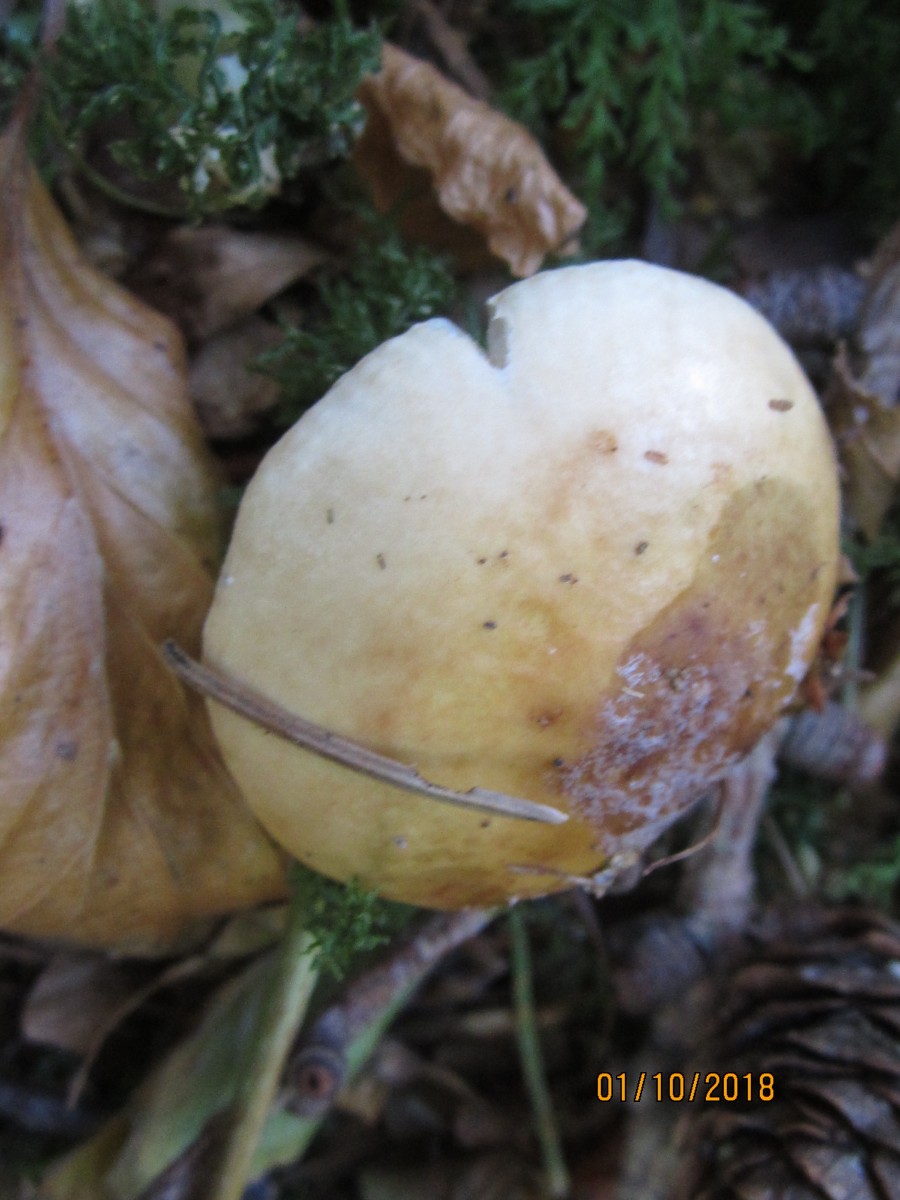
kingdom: Fungi
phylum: Basidiomycota
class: Agaricomycetes
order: Agaricales
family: Omphalotaceae
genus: Rhodocollybia
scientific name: Rhodocollybia maculata
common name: plettet fladhat
